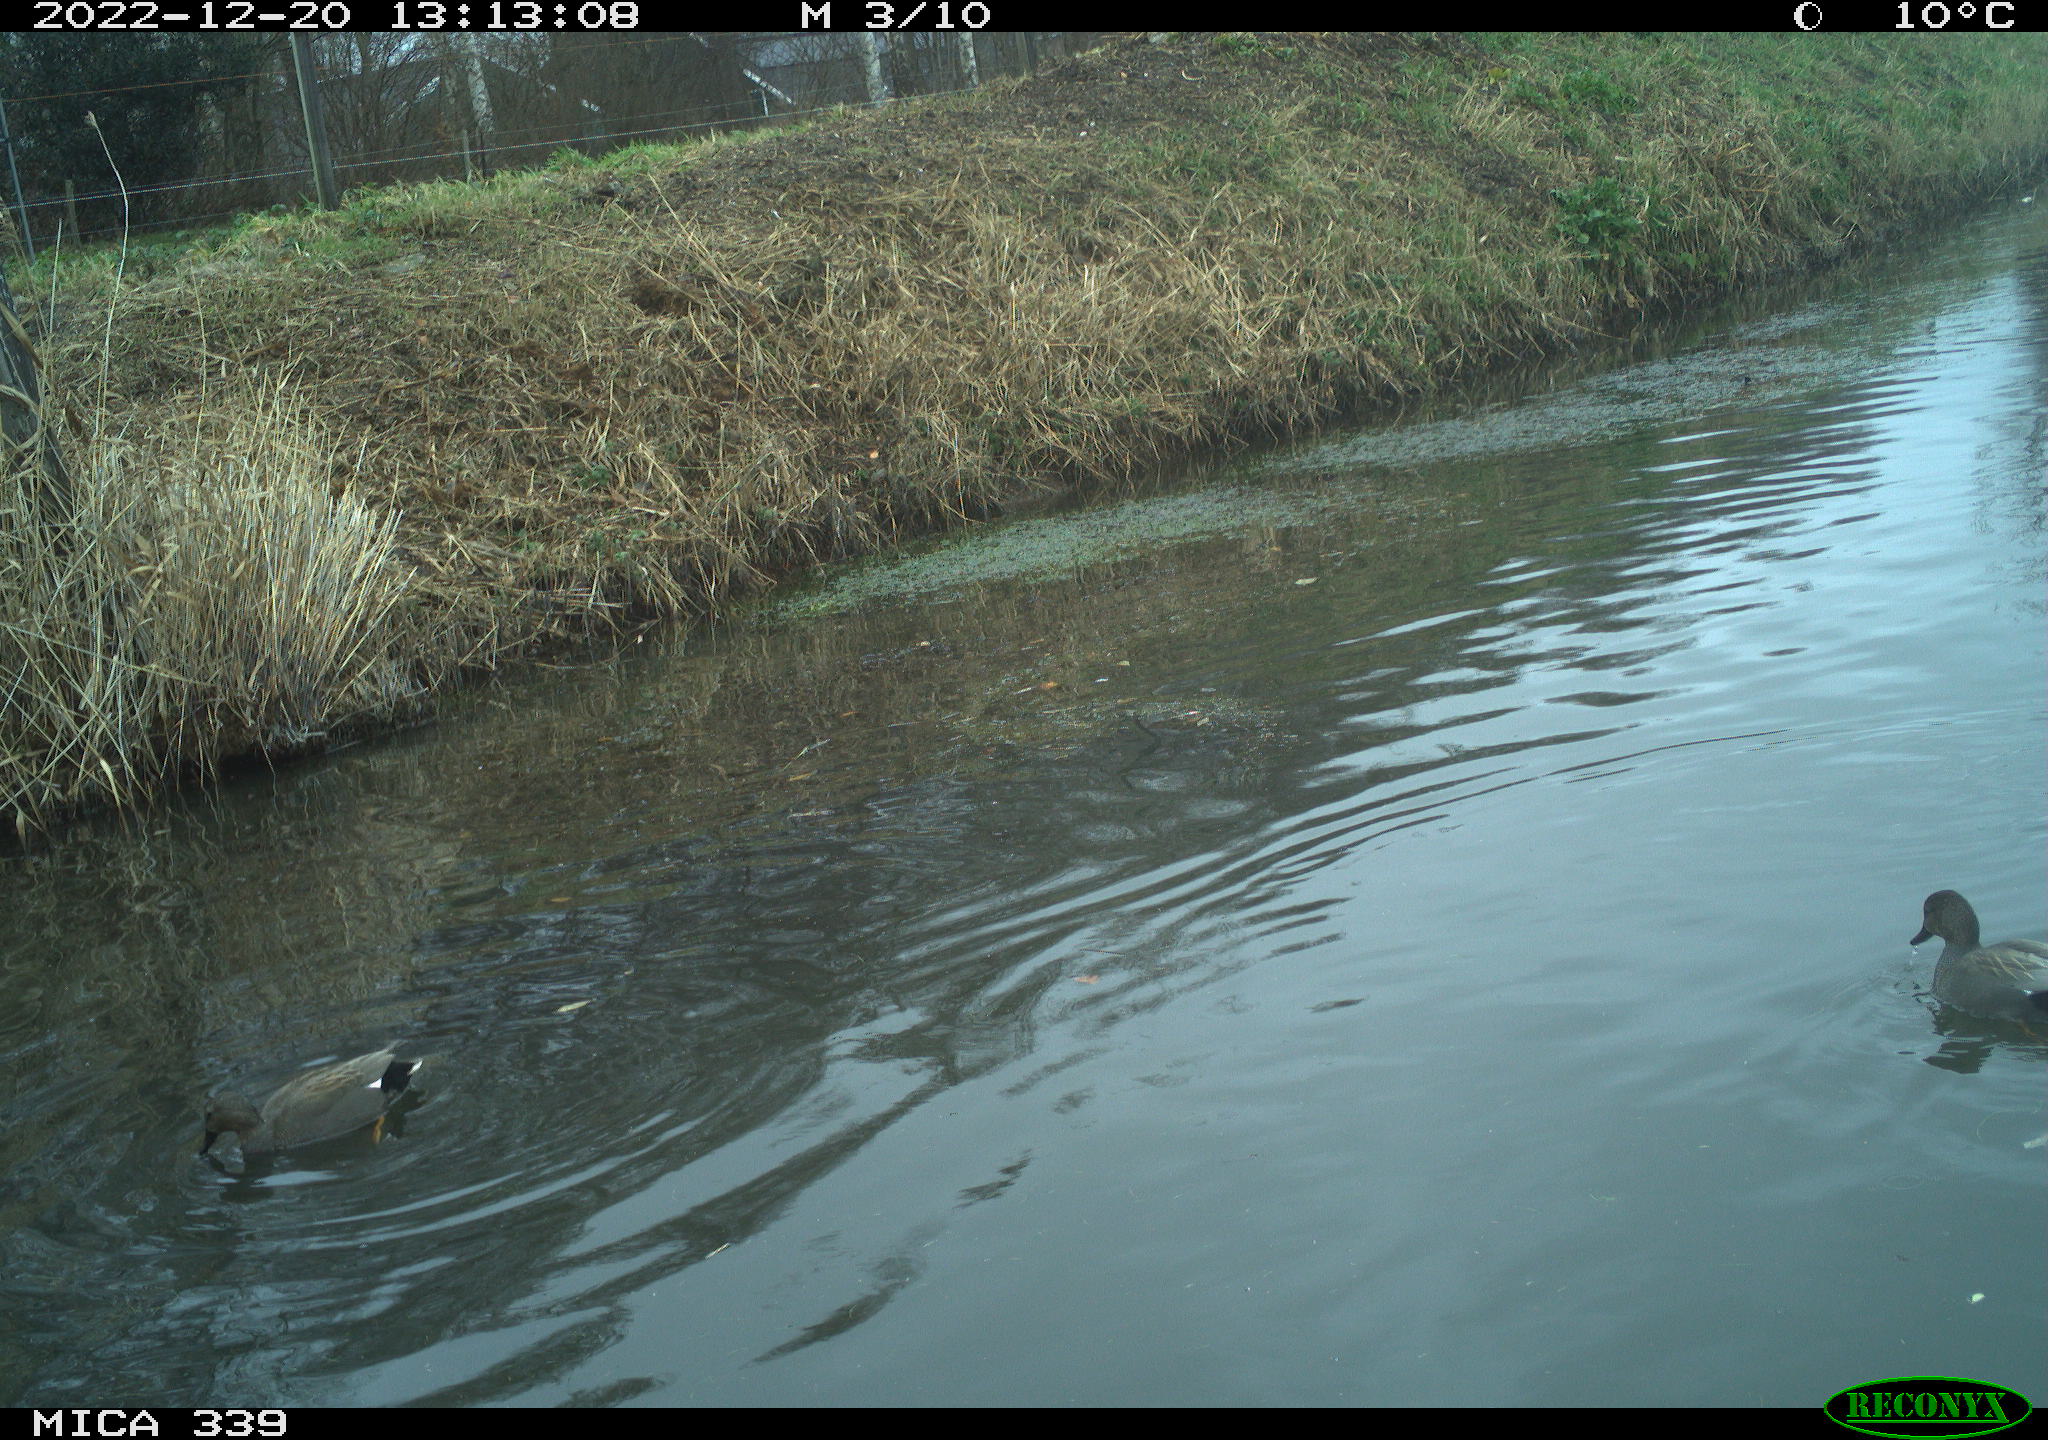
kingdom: Animalia
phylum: Chordata
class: Aves
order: Anseriformes
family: Anatidae
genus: Anas
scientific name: Anas
